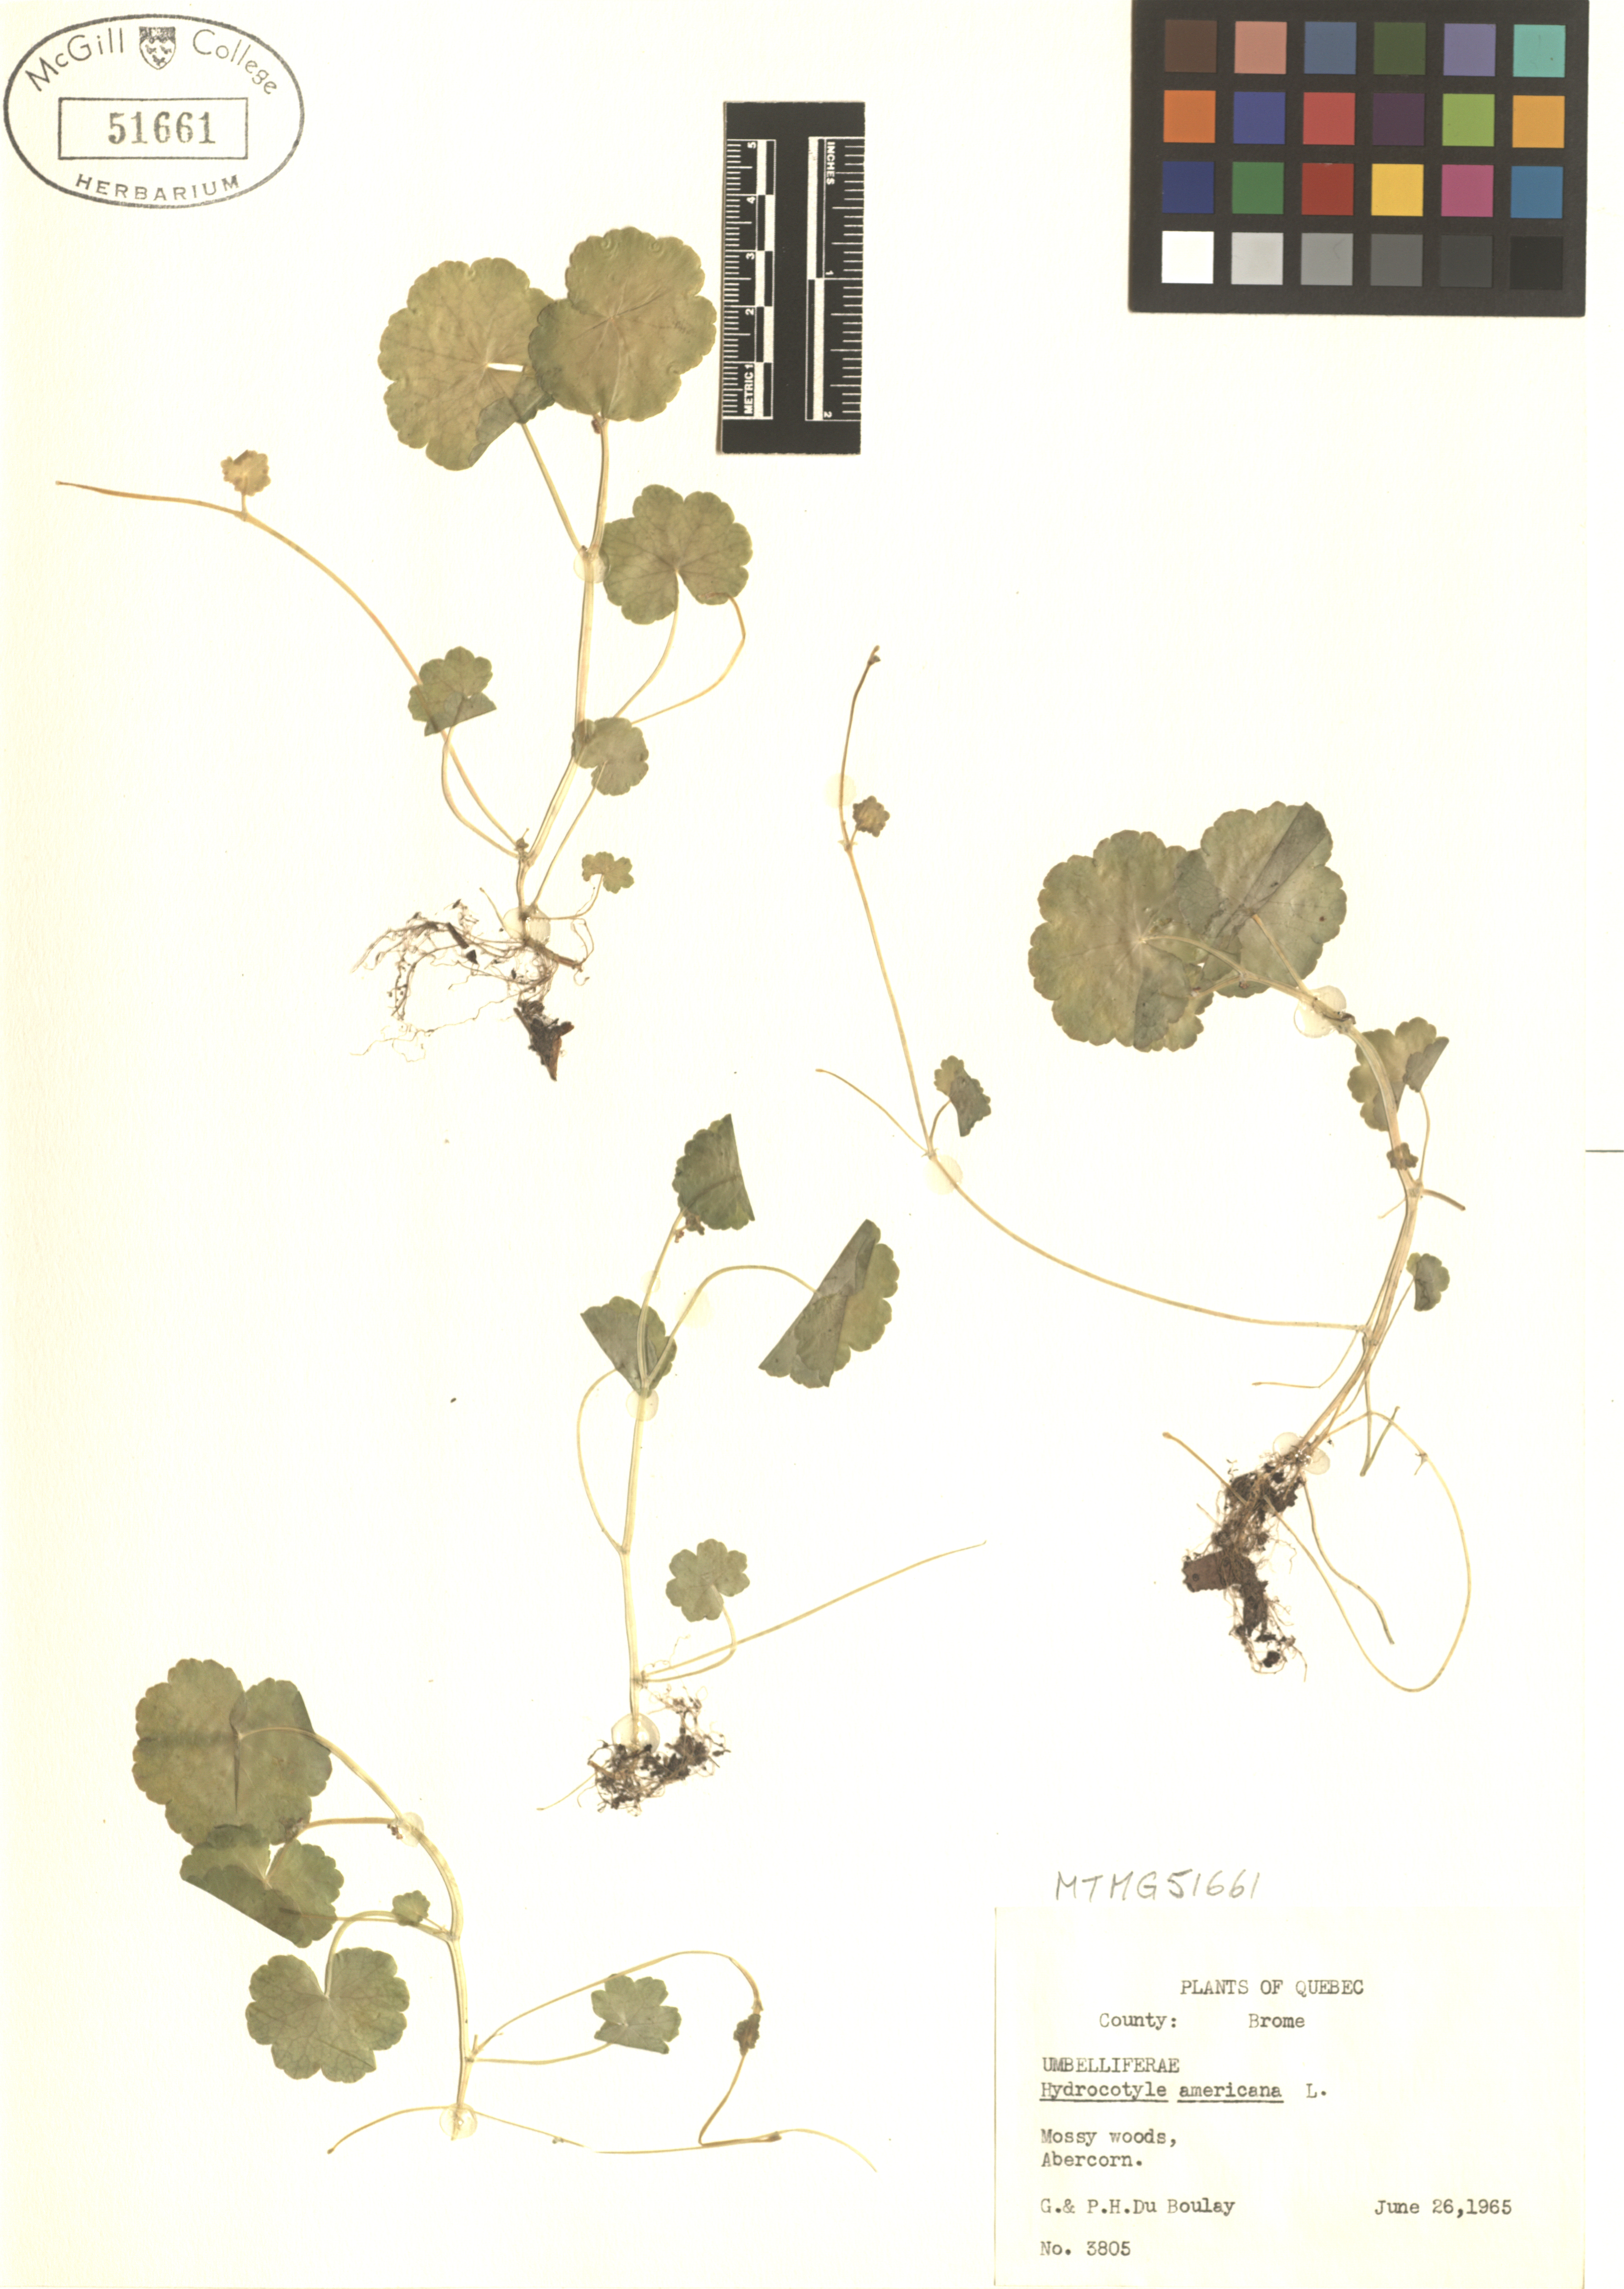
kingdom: Plantae
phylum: Tracheophyta
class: Magnoliopsida
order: Apiales
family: Araliaceae
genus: Hydrocotyle
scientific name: Hydrocotyle americana
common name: American water-pennywort
